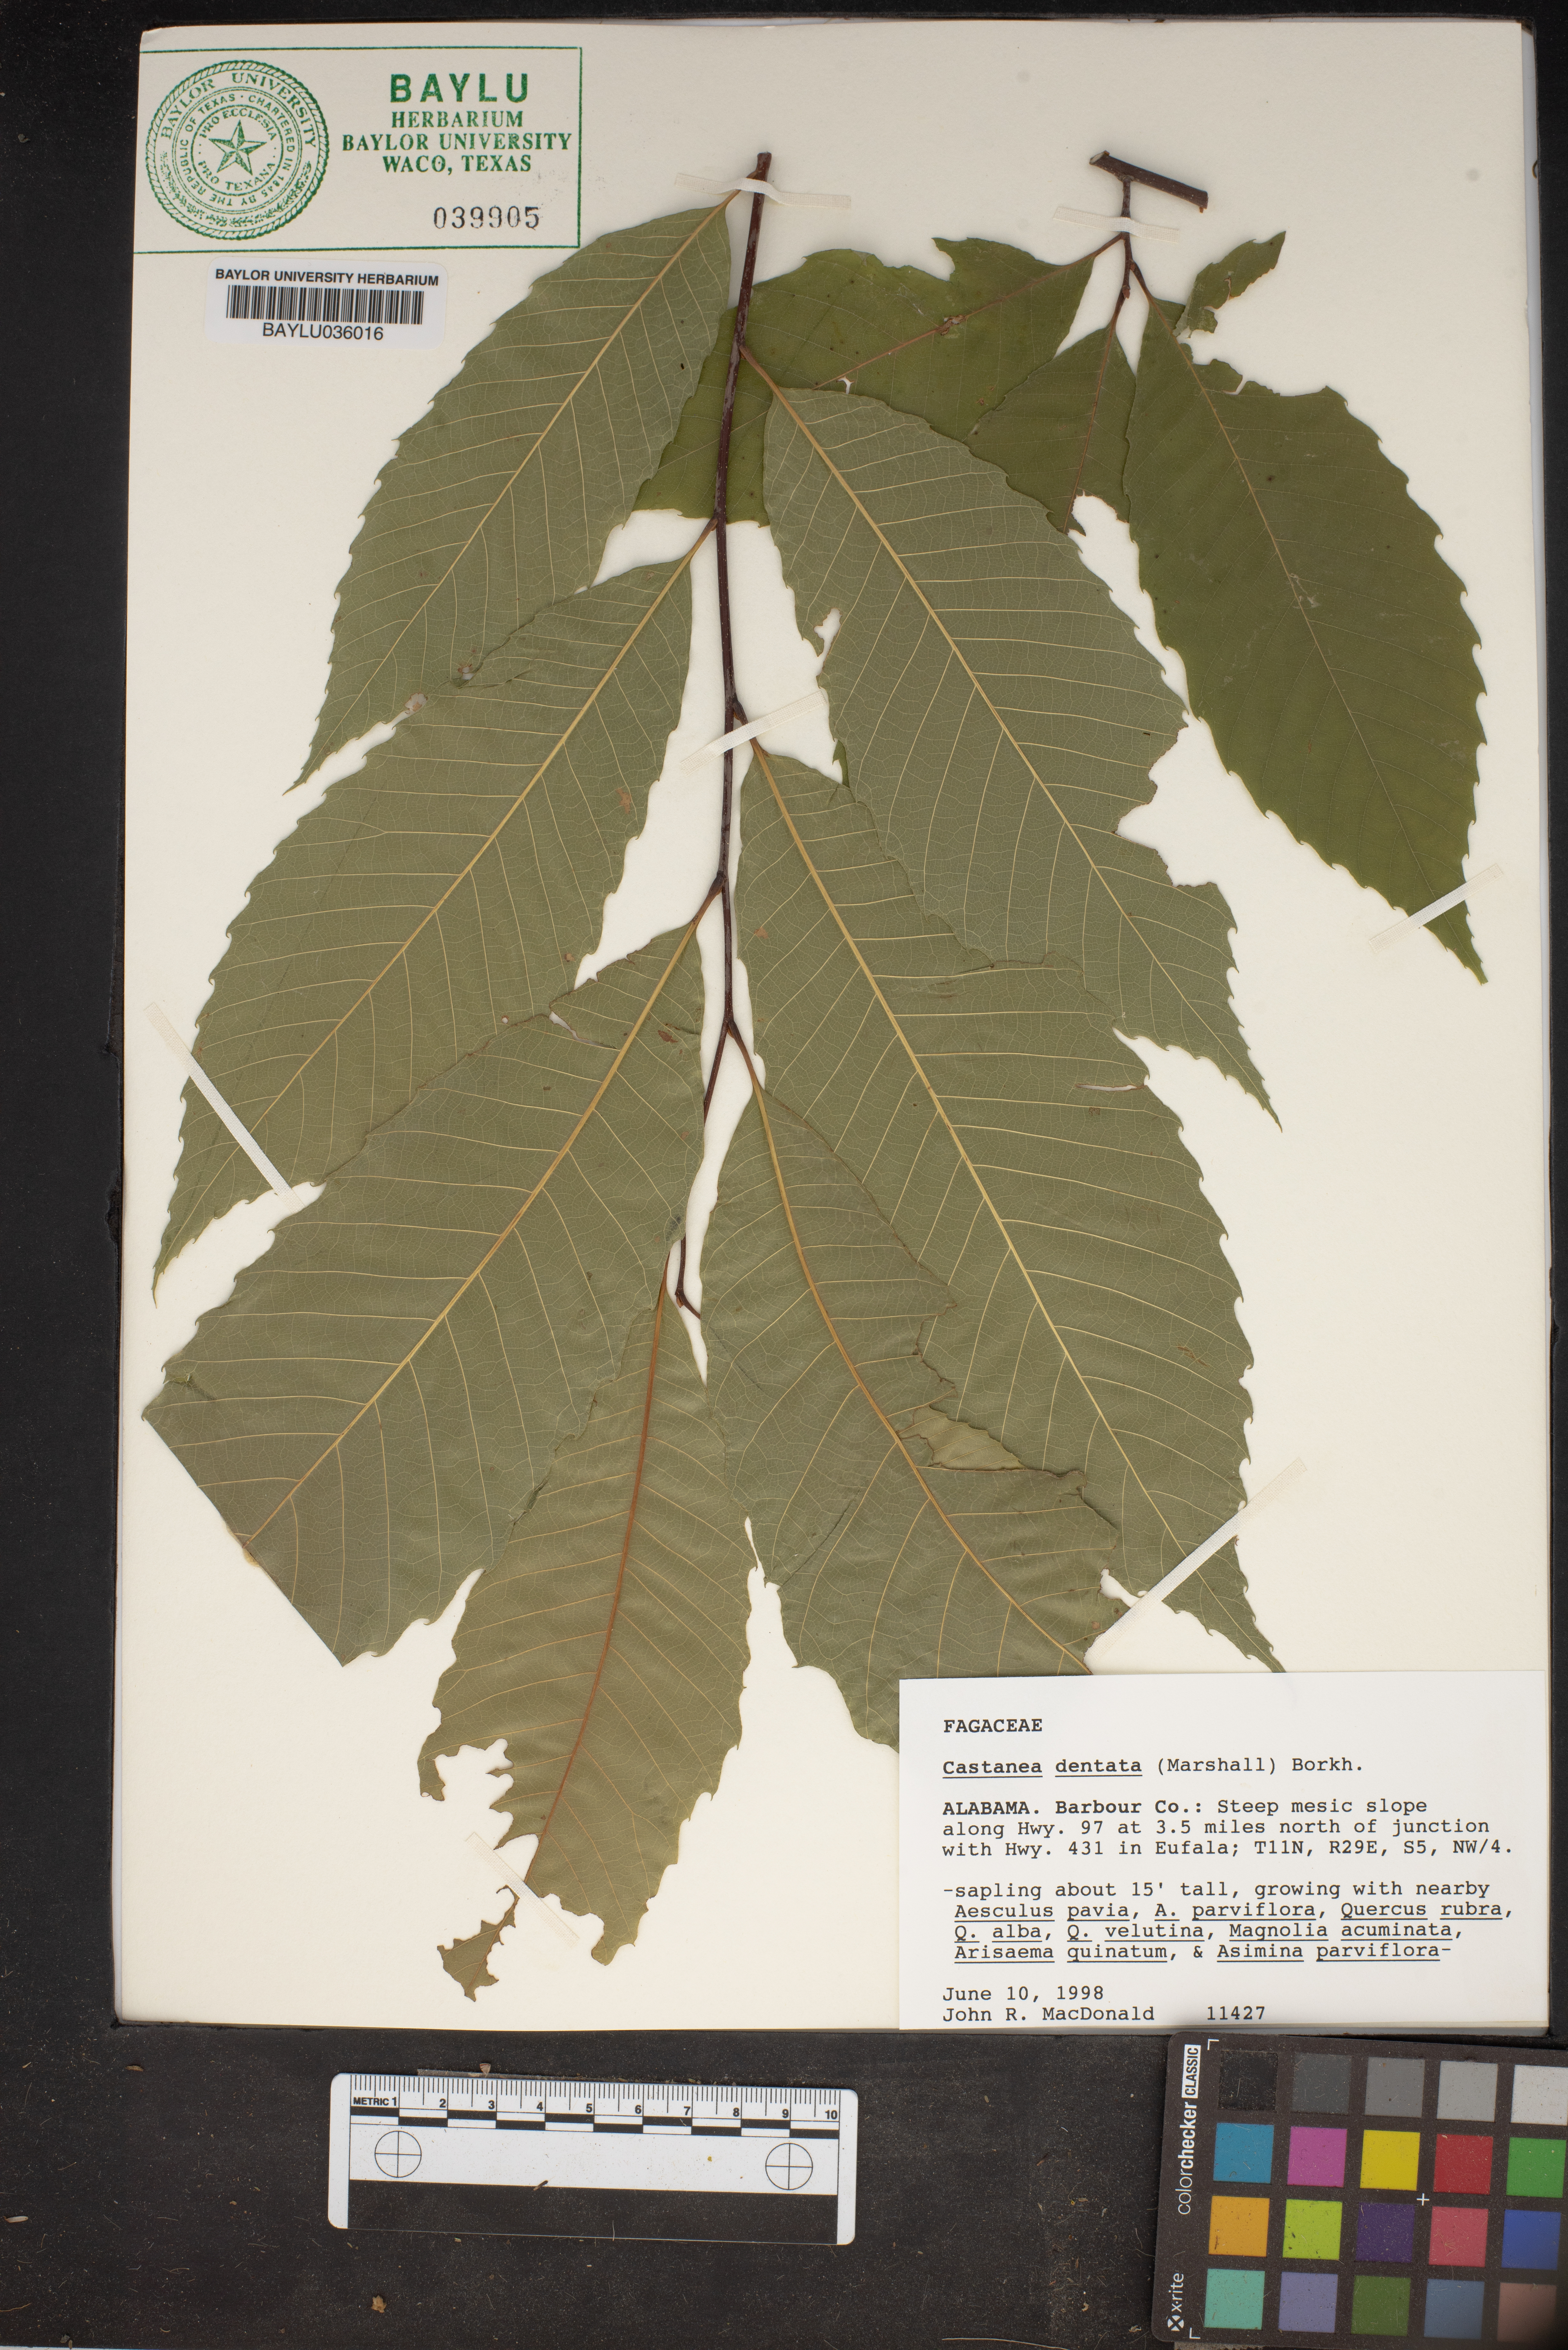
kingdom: Plantae
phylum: Tracheophyta
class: Magnoliopsida
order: Fagales
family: Fagaceae
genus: Castanea
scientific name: Castanea dentata
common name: American chestnut
